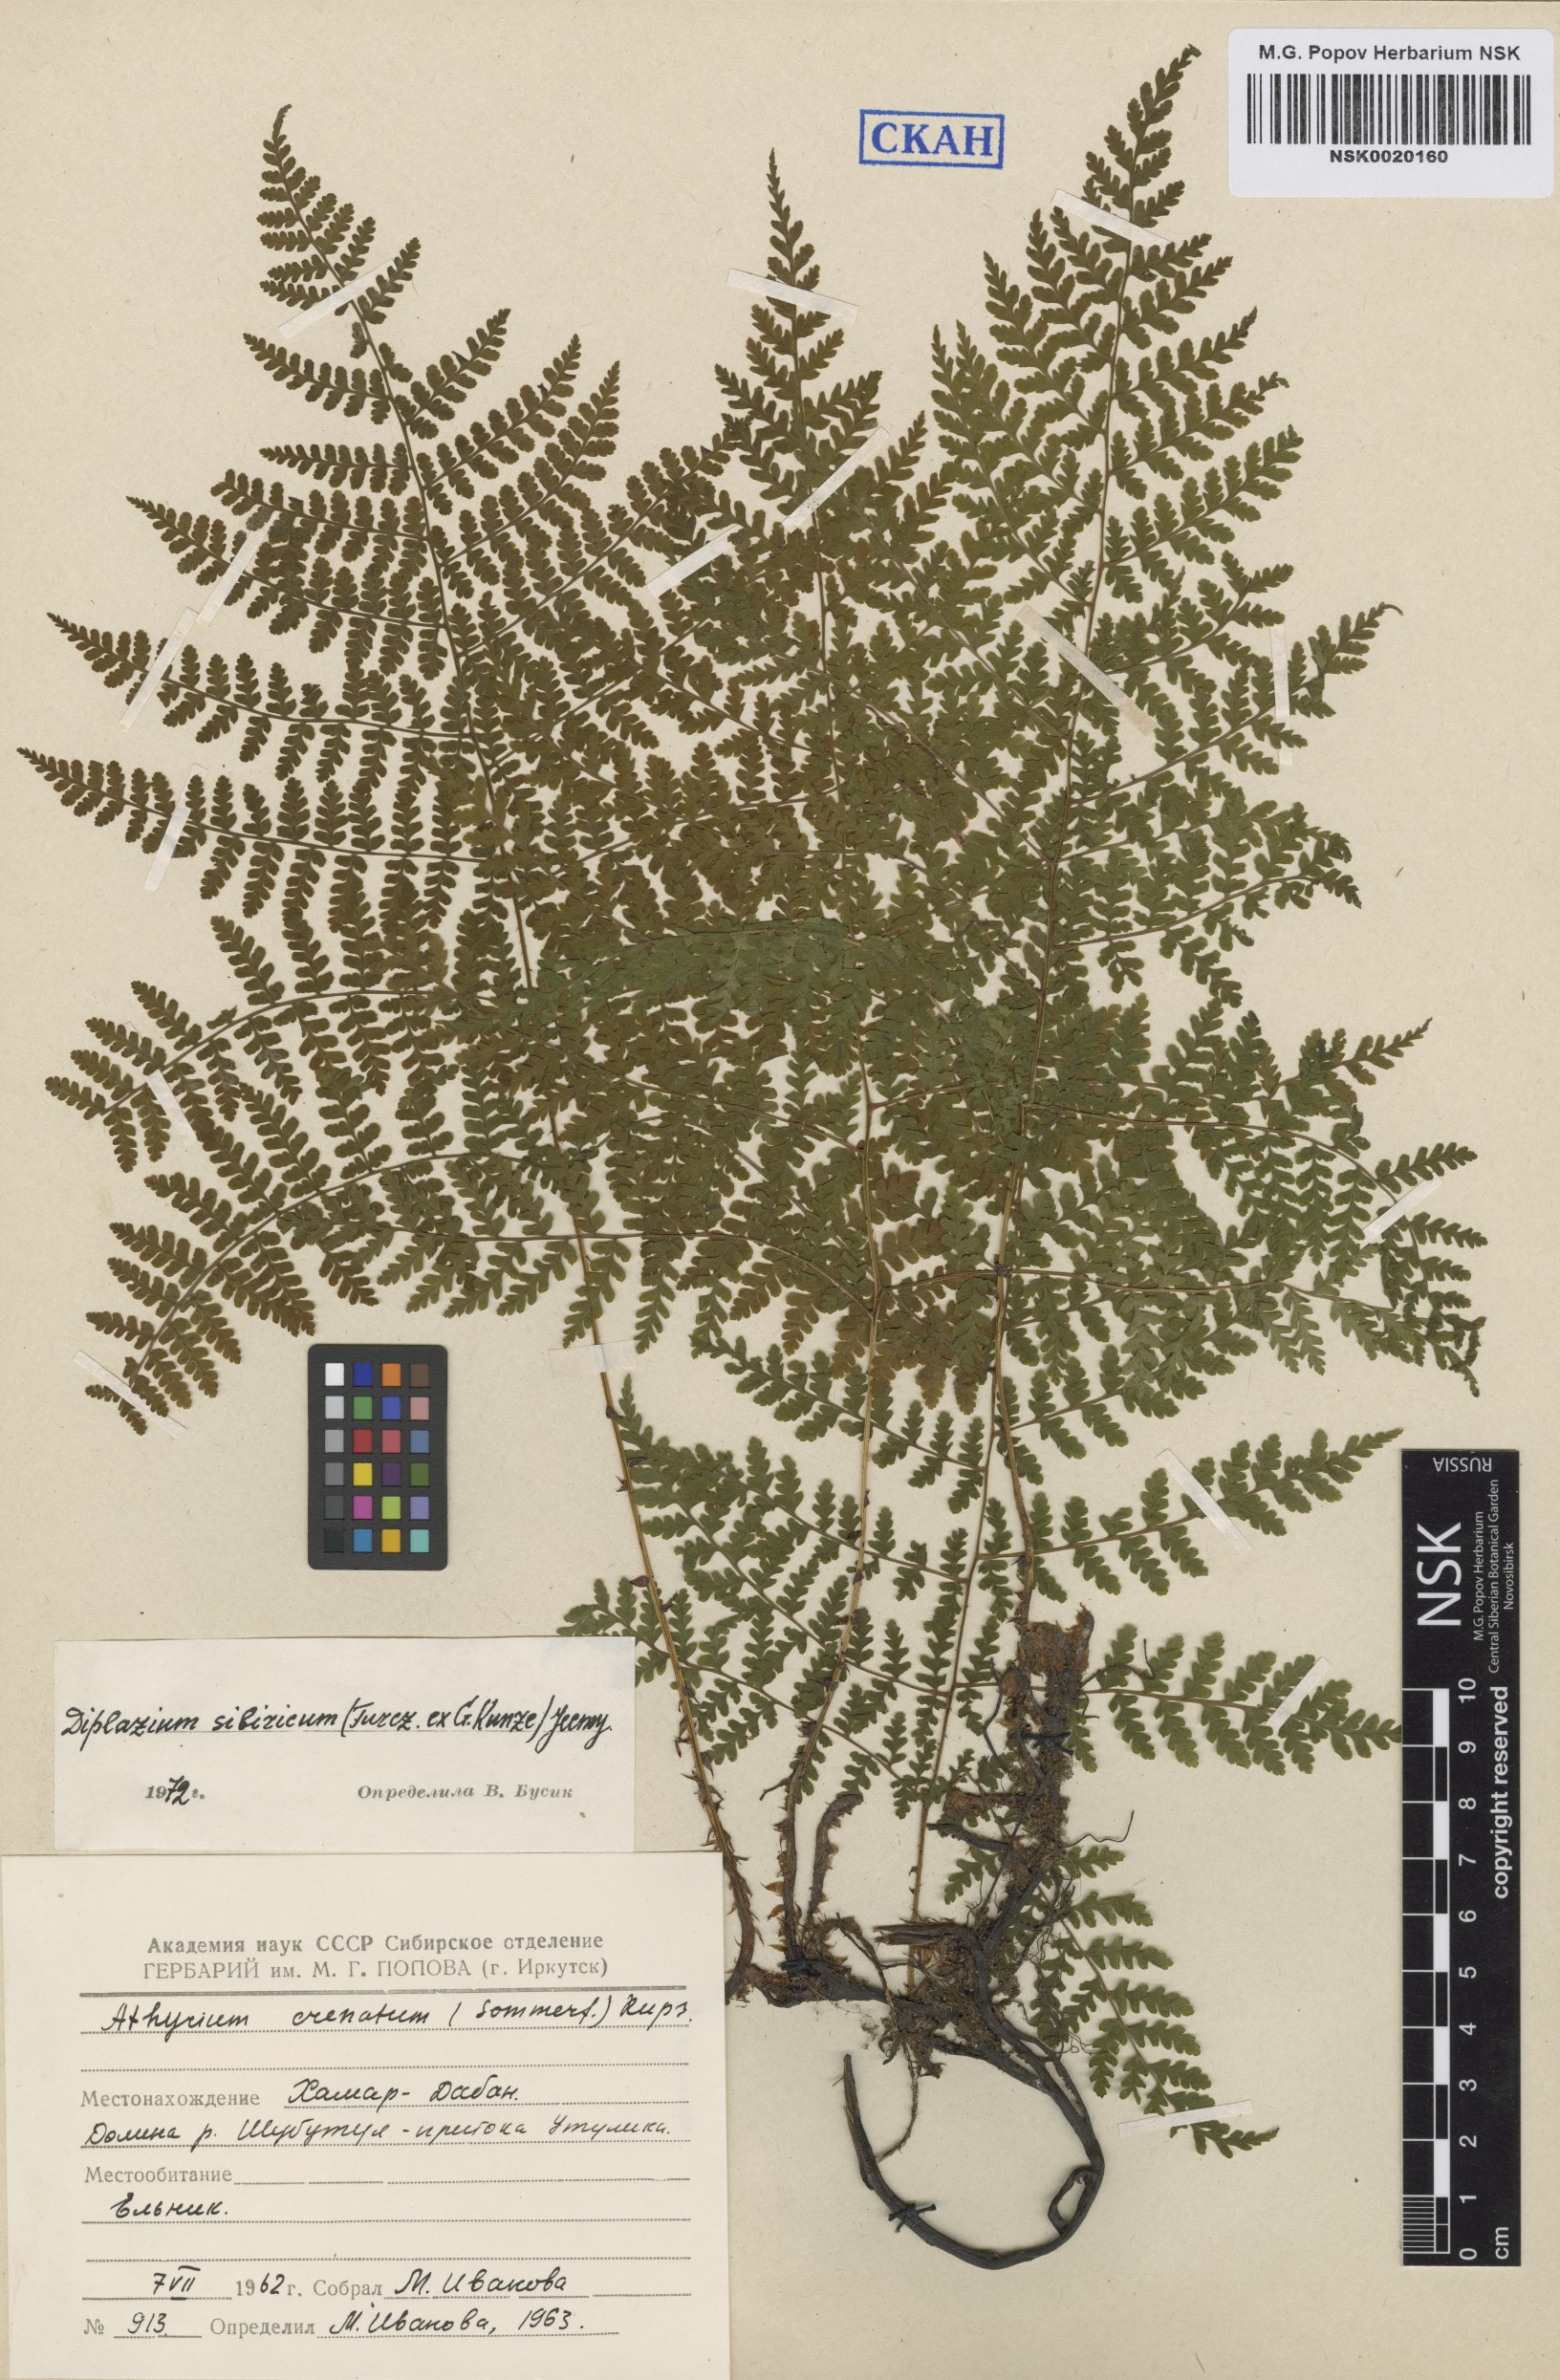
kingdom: Plantae
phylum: Tracheophyta
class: Polypodiopsida
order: Polypodiales
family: Athyriaceae
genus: Diplazium
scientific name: Diplazium sibiricum
